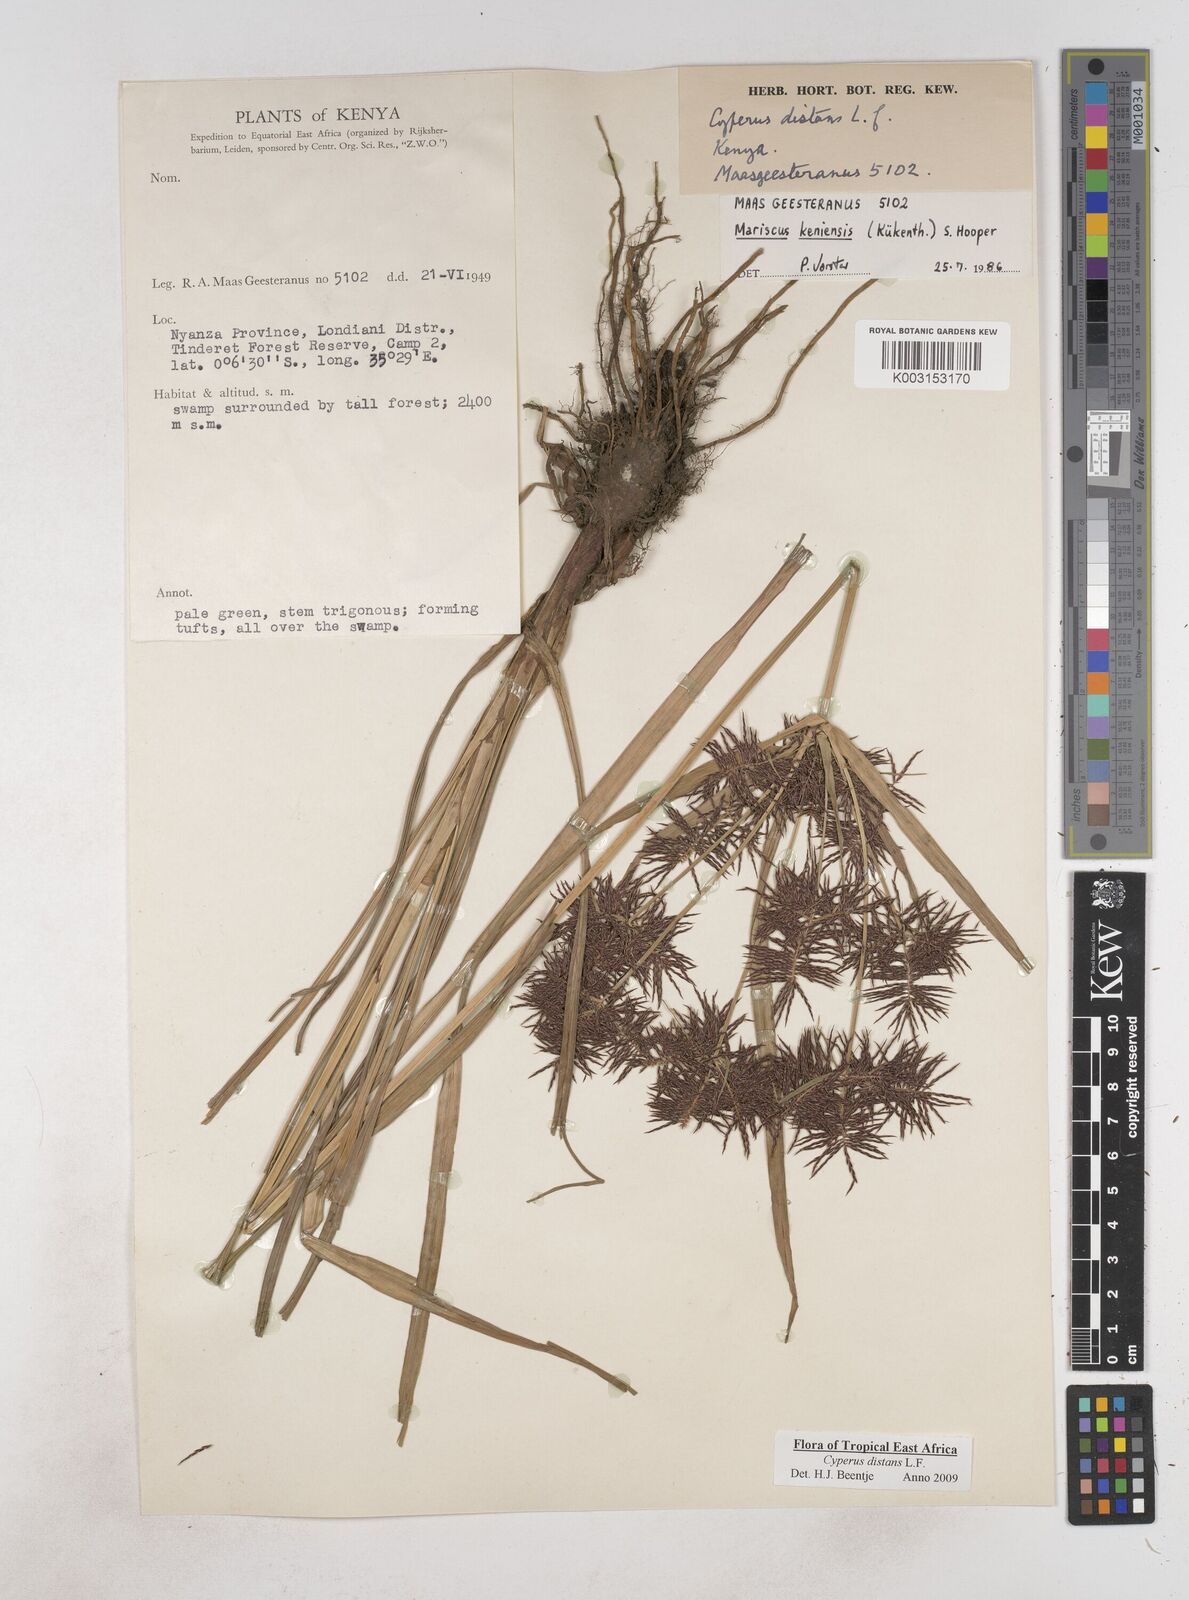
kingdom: Plantae
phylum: Tracheophyta
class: Liliopsida
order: Poales
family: Cyperaceae
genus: Cyperus
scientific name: Cyperus distans
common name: Slender cyperus
